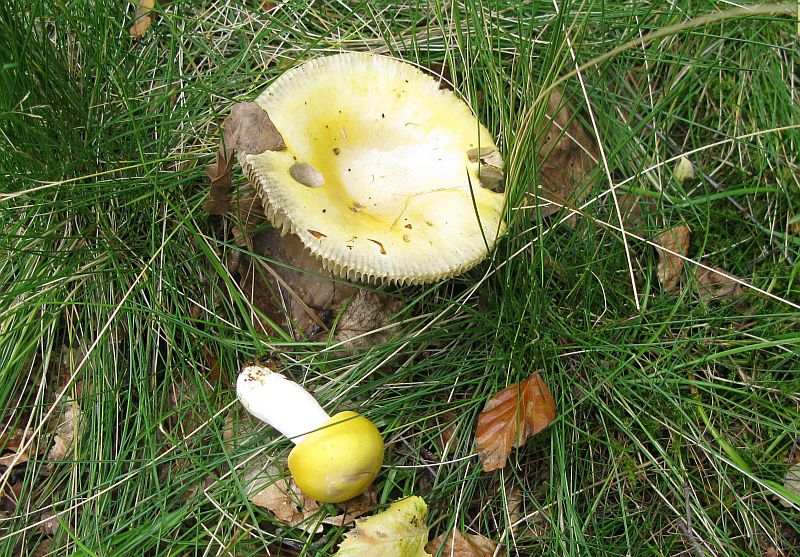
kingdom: Fungi
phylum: Basidiomycota
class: Agaricomycetes
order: Russulales
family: Russulaceae
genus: Russula
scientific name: Russula claroflava
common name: birke-skørhat
